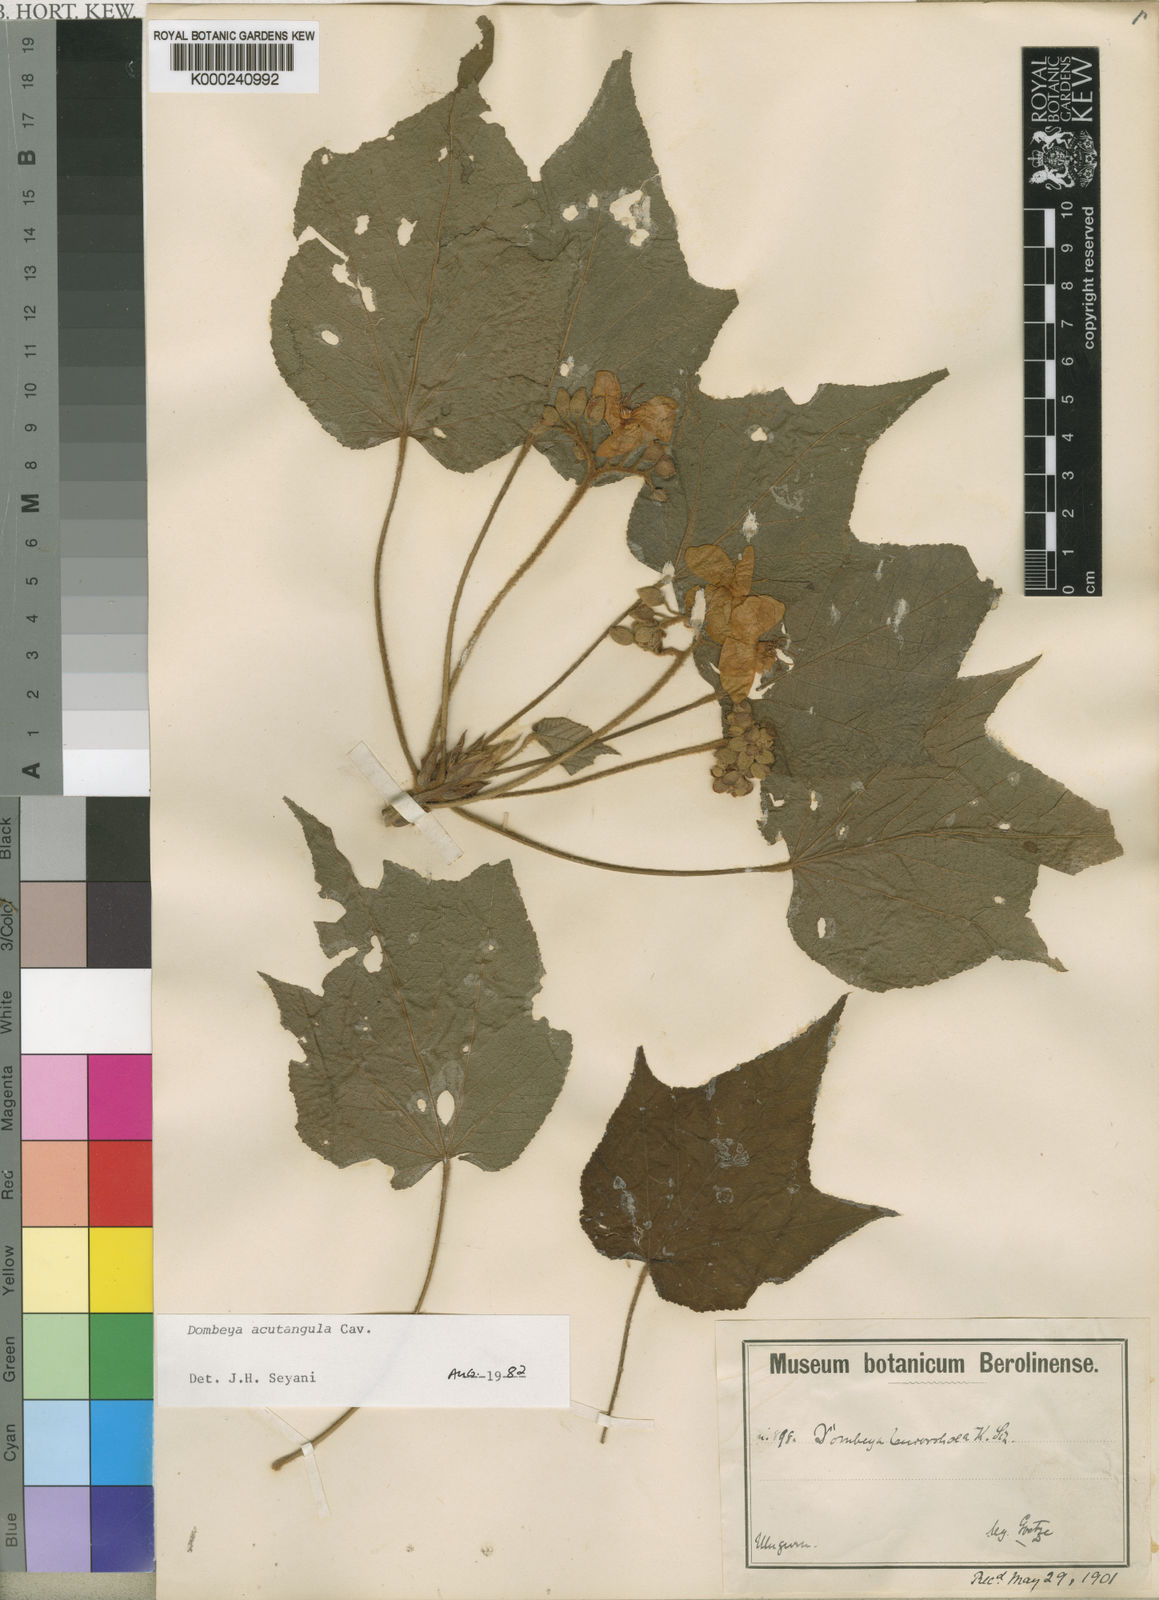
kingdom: Plantae
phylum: Tracheophyta
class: Magnoliopsida
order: Malvales
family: Malvaceae
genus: Dombeya
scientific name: Dombeya acutangula
